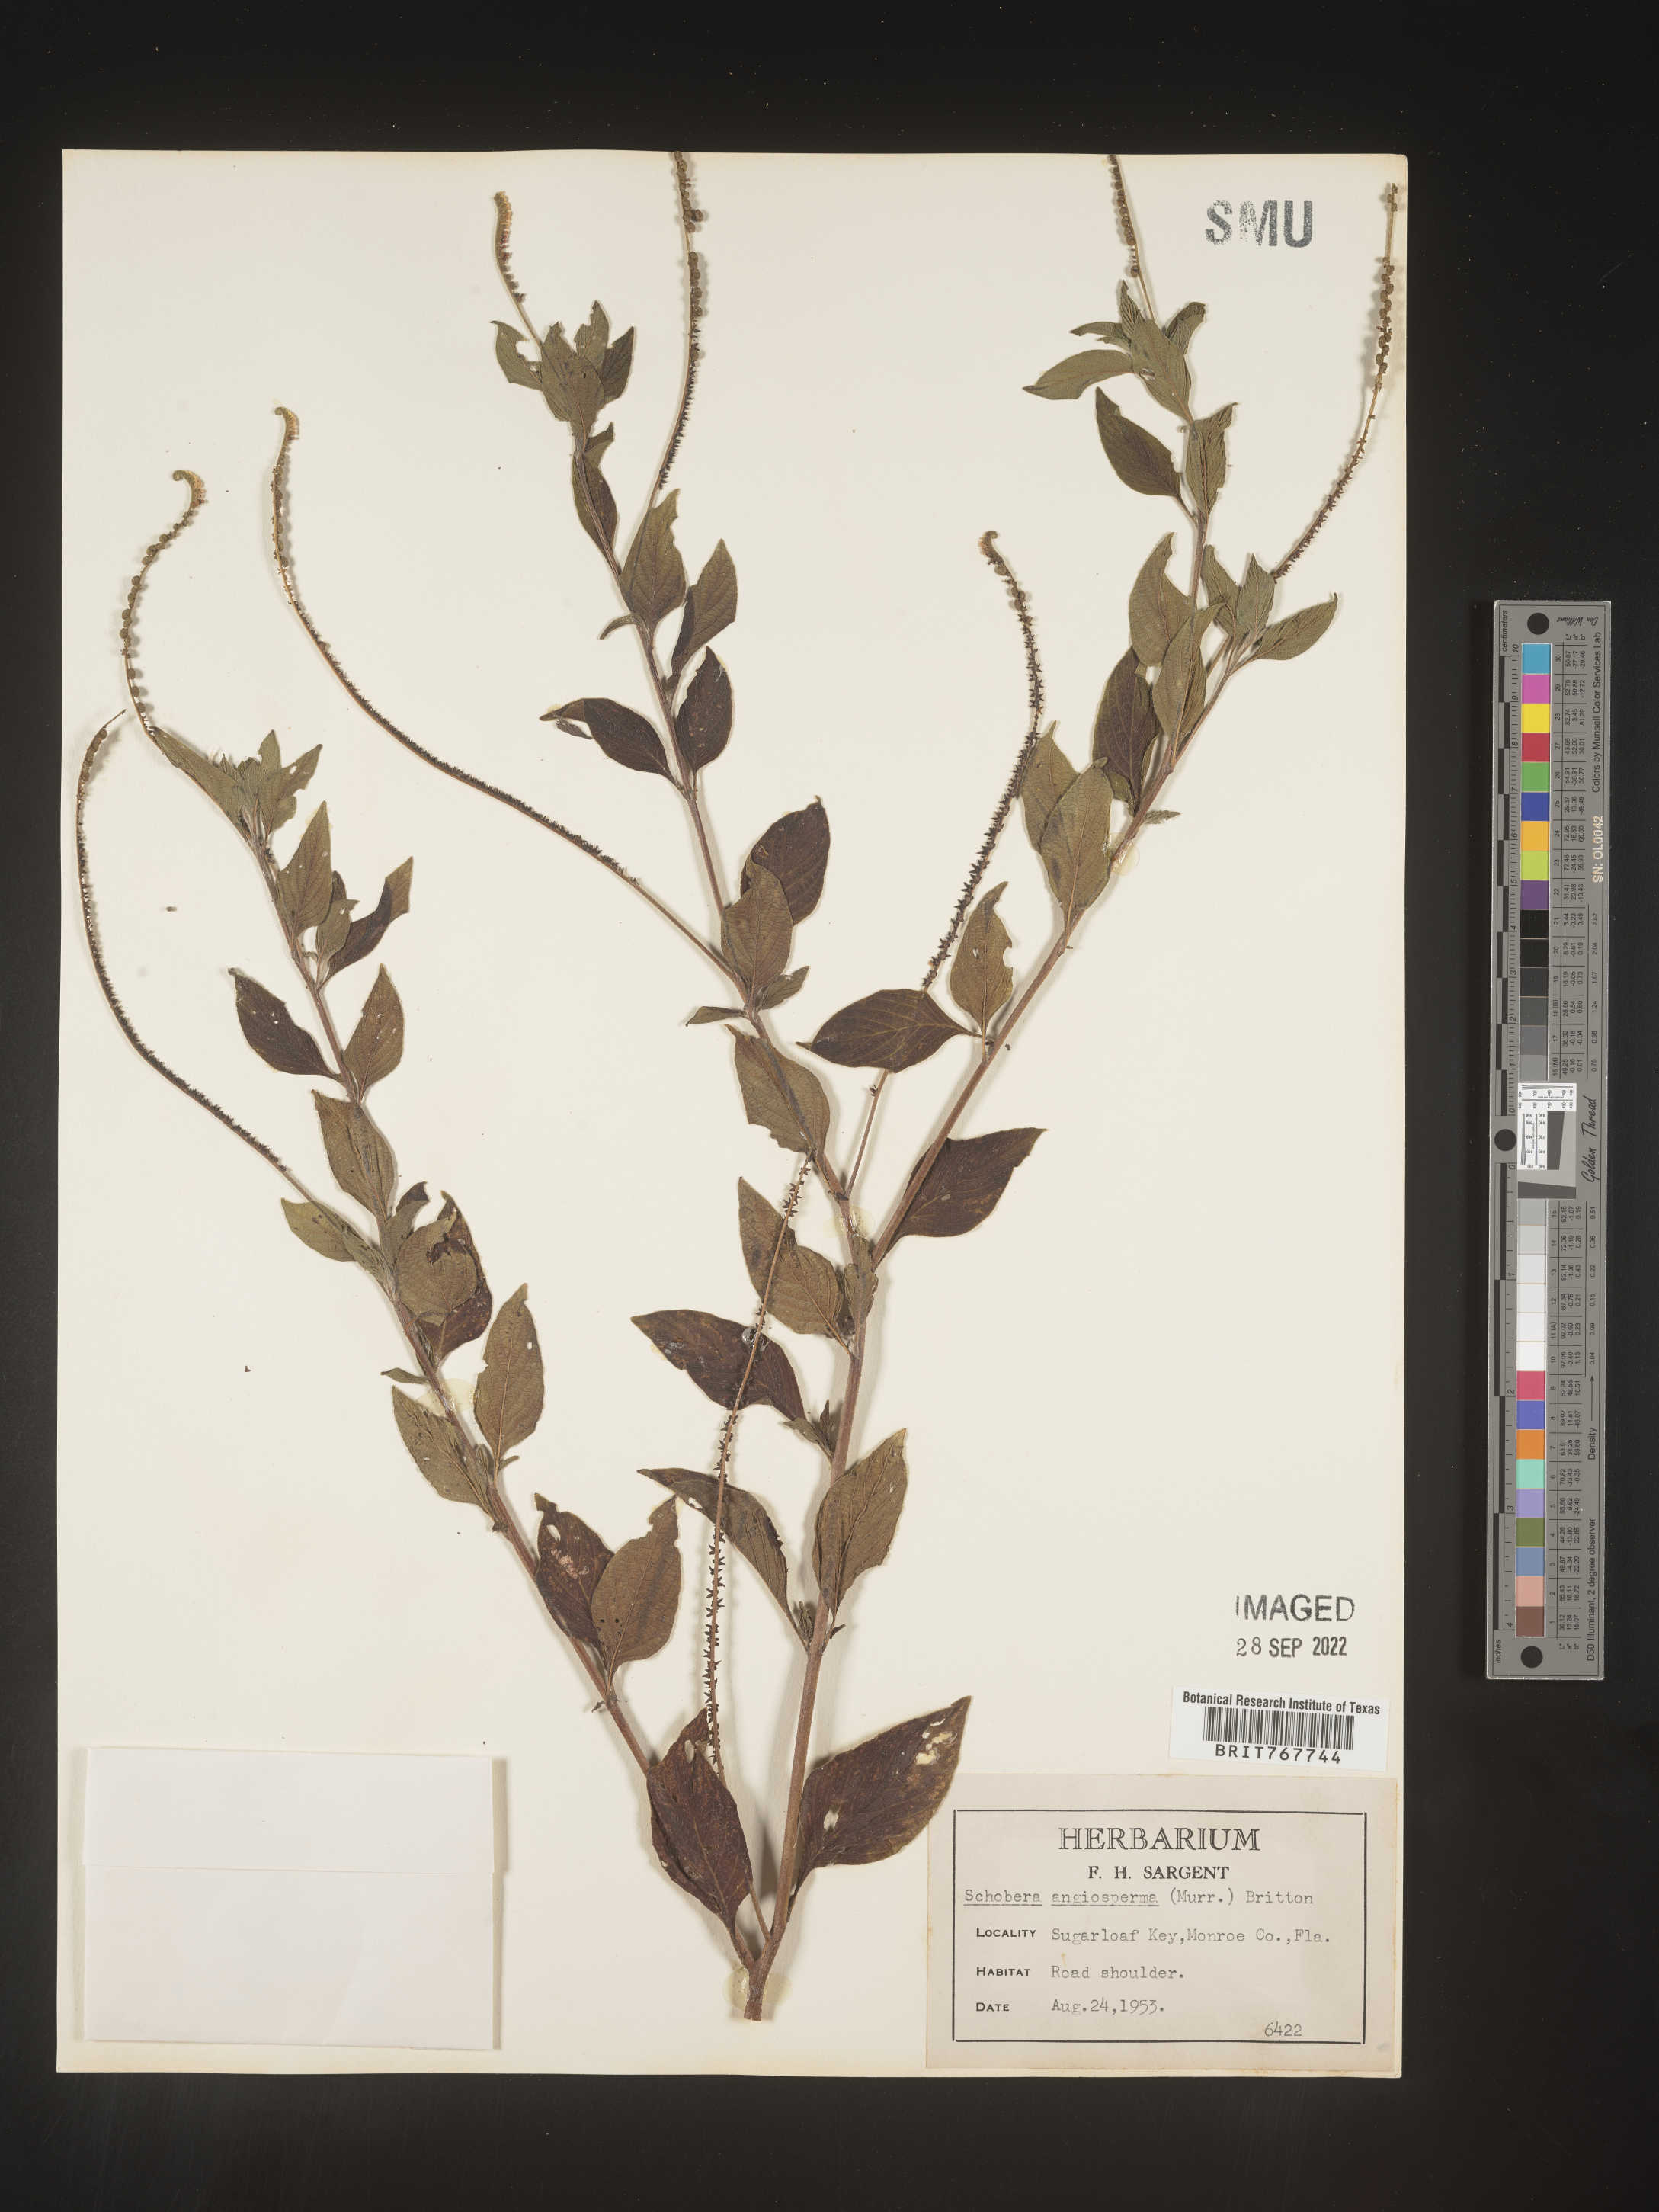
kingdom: Plantae
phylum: Tracheophyta
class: Magnoliopsida
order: Boraginales
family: Heliotropiaceae
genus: Heliotropium
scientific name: Heliotropium
